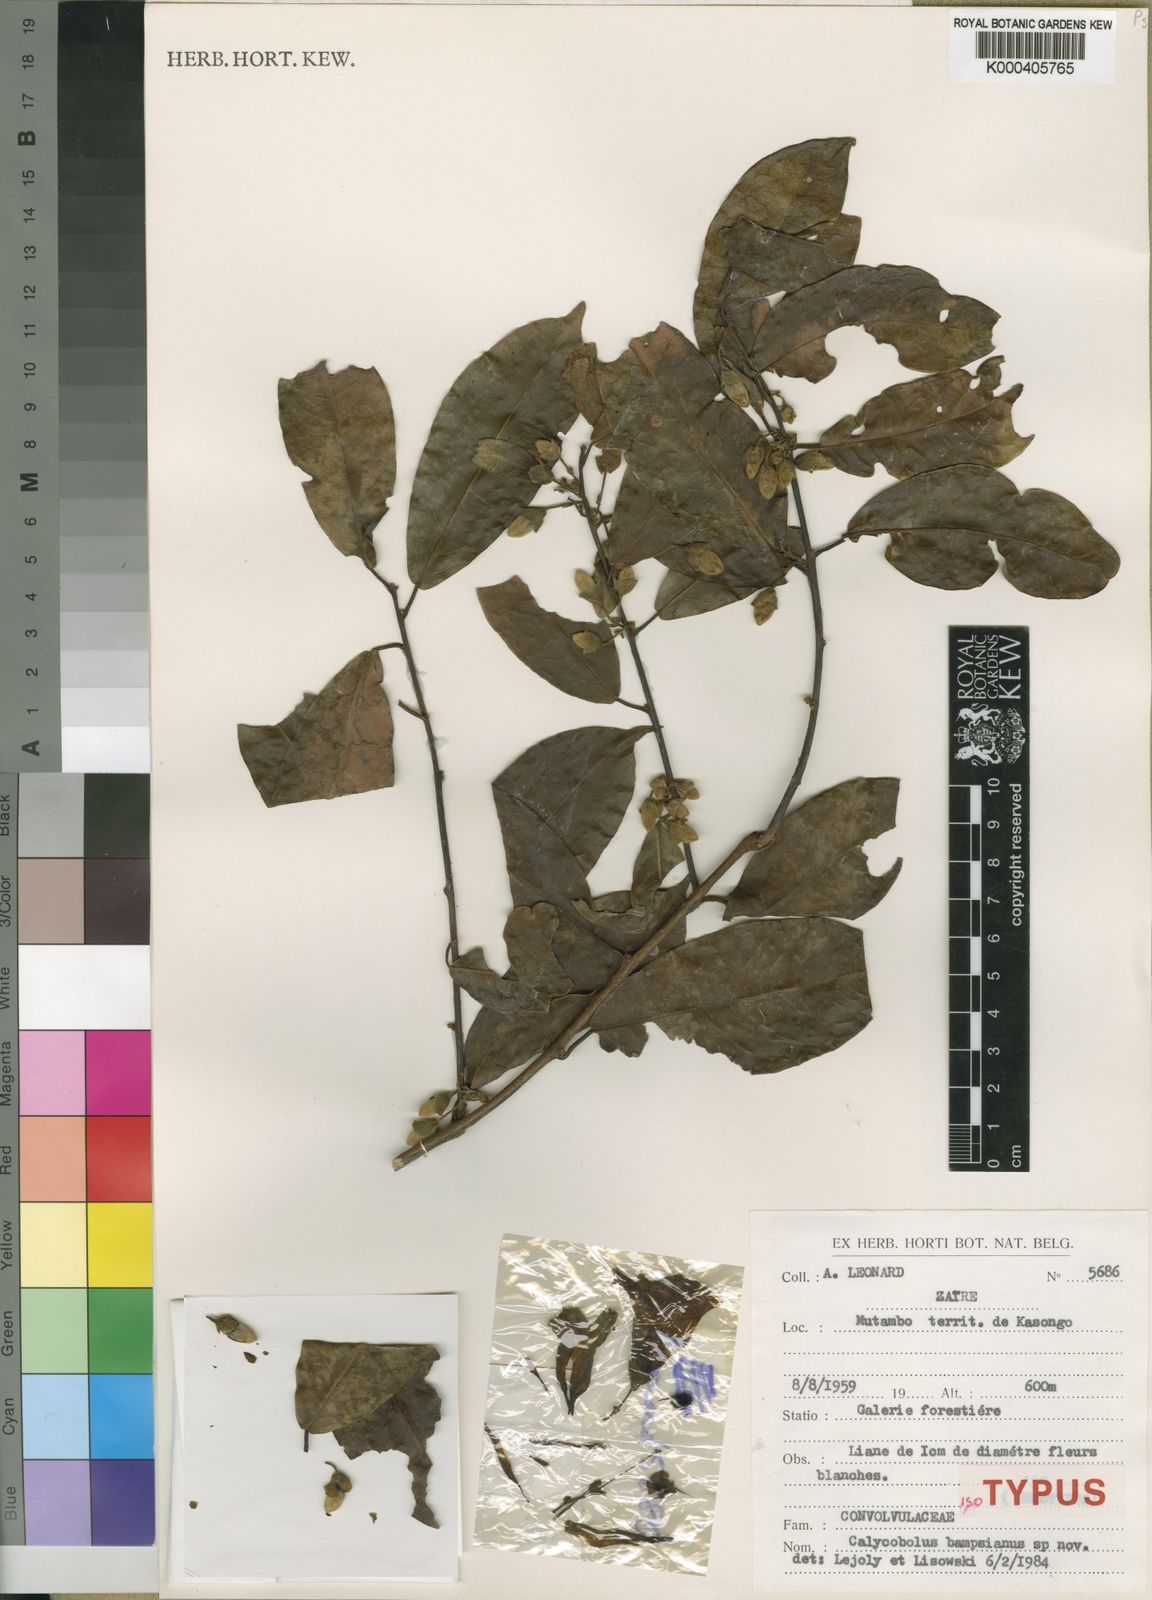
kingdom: Plantae
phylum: Tracheophyta
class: Magnoliopsida
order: Solanales
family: Convolvulaceae
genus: Calycobolus
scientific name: Calycobolus acuminatus
